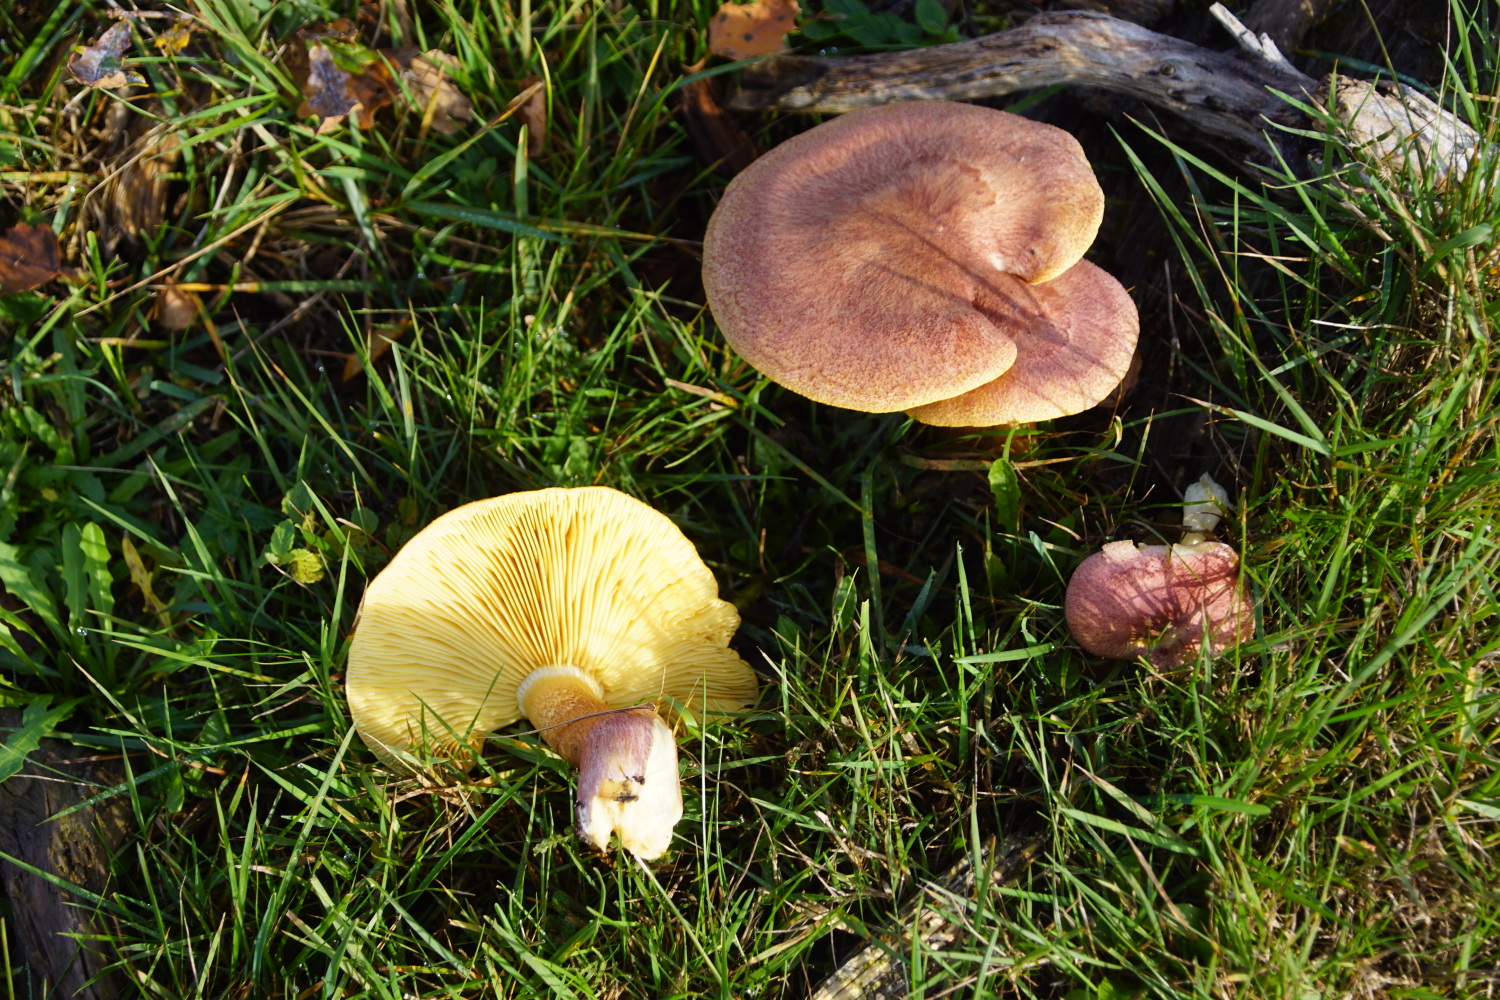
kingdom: Fungi
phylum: Basidiomycota
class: Agaricomycetes
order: Agaricales
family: Tricholomataceae
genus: Tricholomopsis
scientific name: Tricholomopsis rutilans
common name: purpur-væbnerhat
